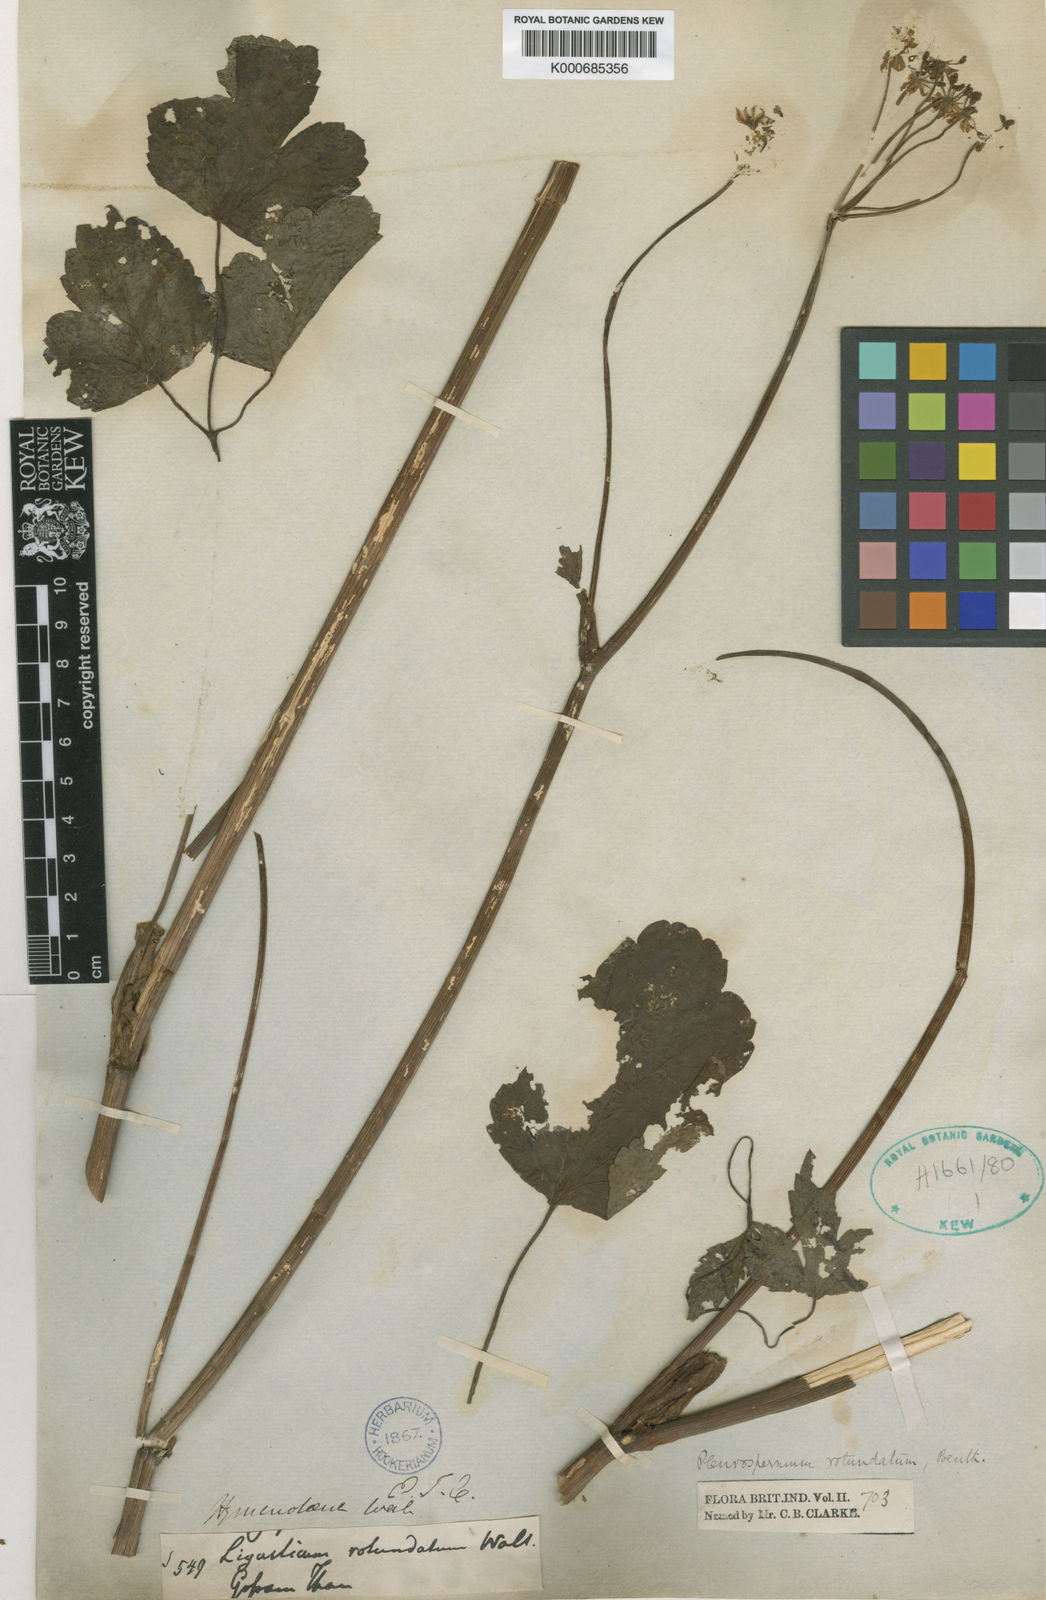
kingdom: Plantae
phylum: Tracheophyta
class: Magnoliopsida
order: Apiales
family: Apiaceae
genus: Pterocyclus
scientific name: Pterocyclus
